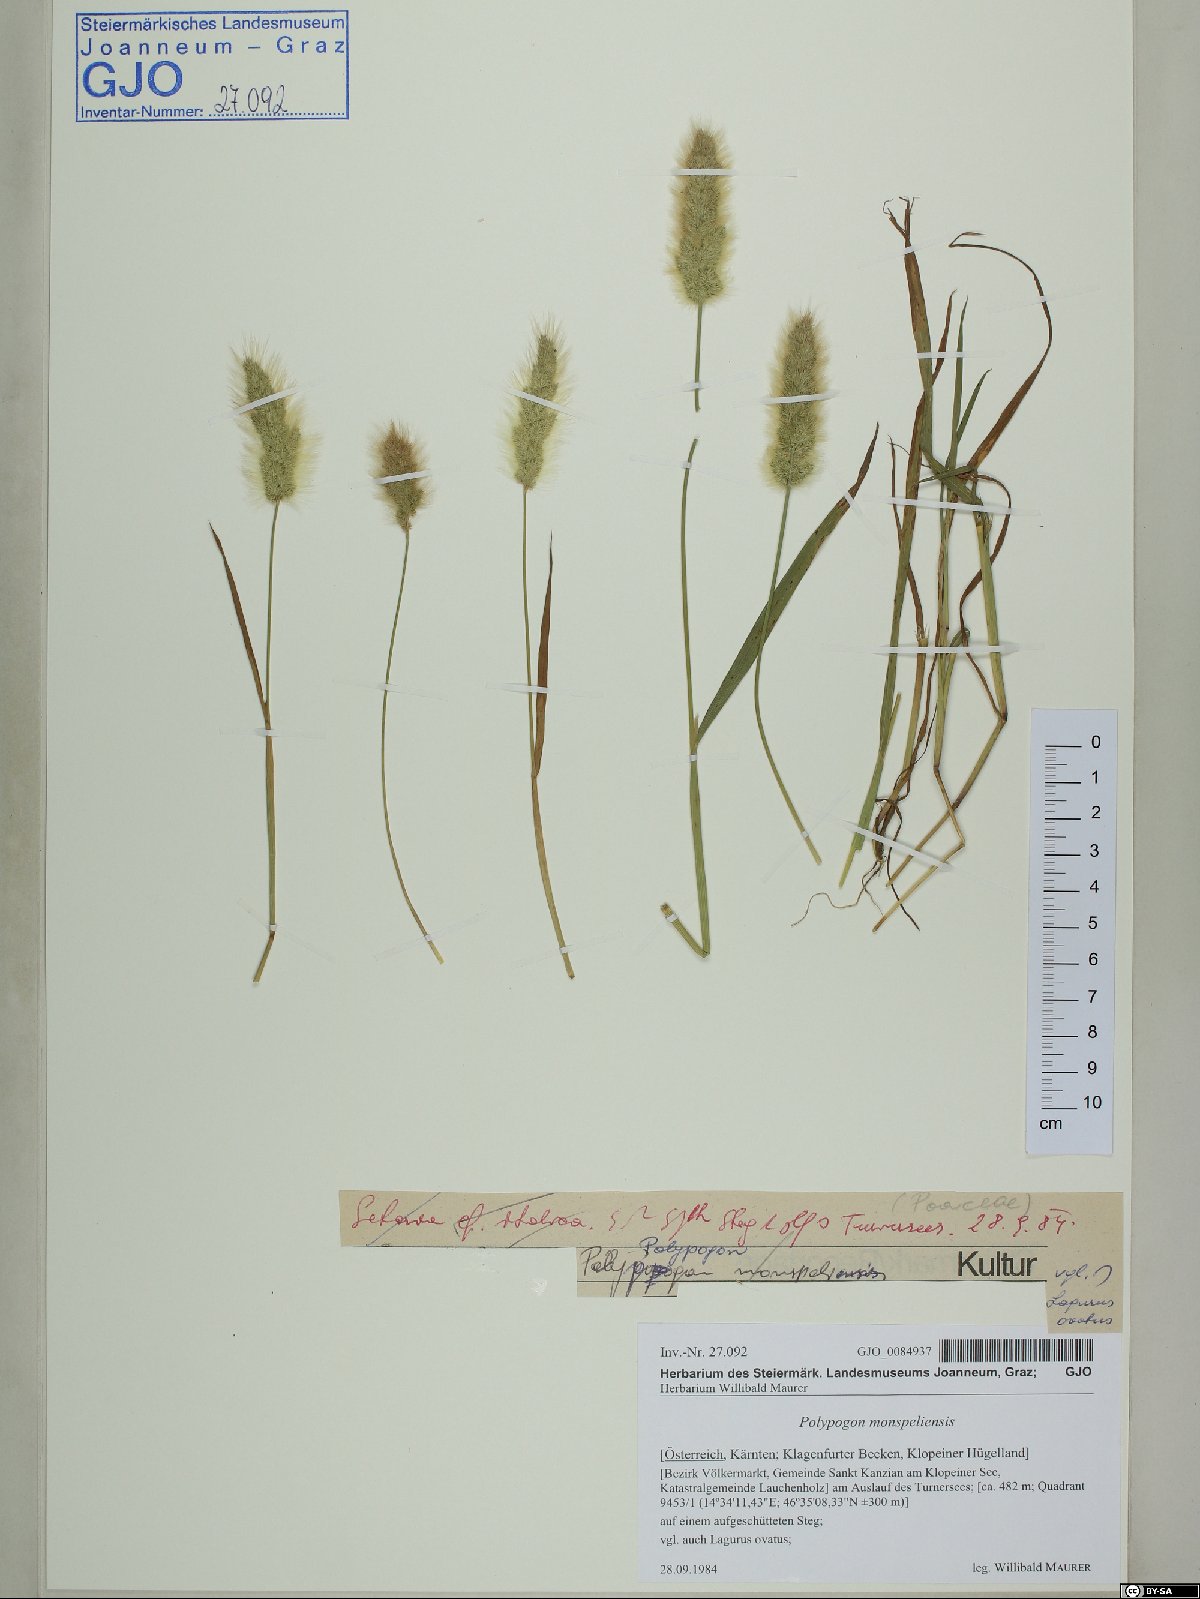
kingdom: Plantae
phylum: Tracheophyta
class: Liliopsida
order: Poales
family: Poaceae
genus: Polypogon
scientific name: Polypogon monspeliensis
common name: Annual rabbitsfoot grass
